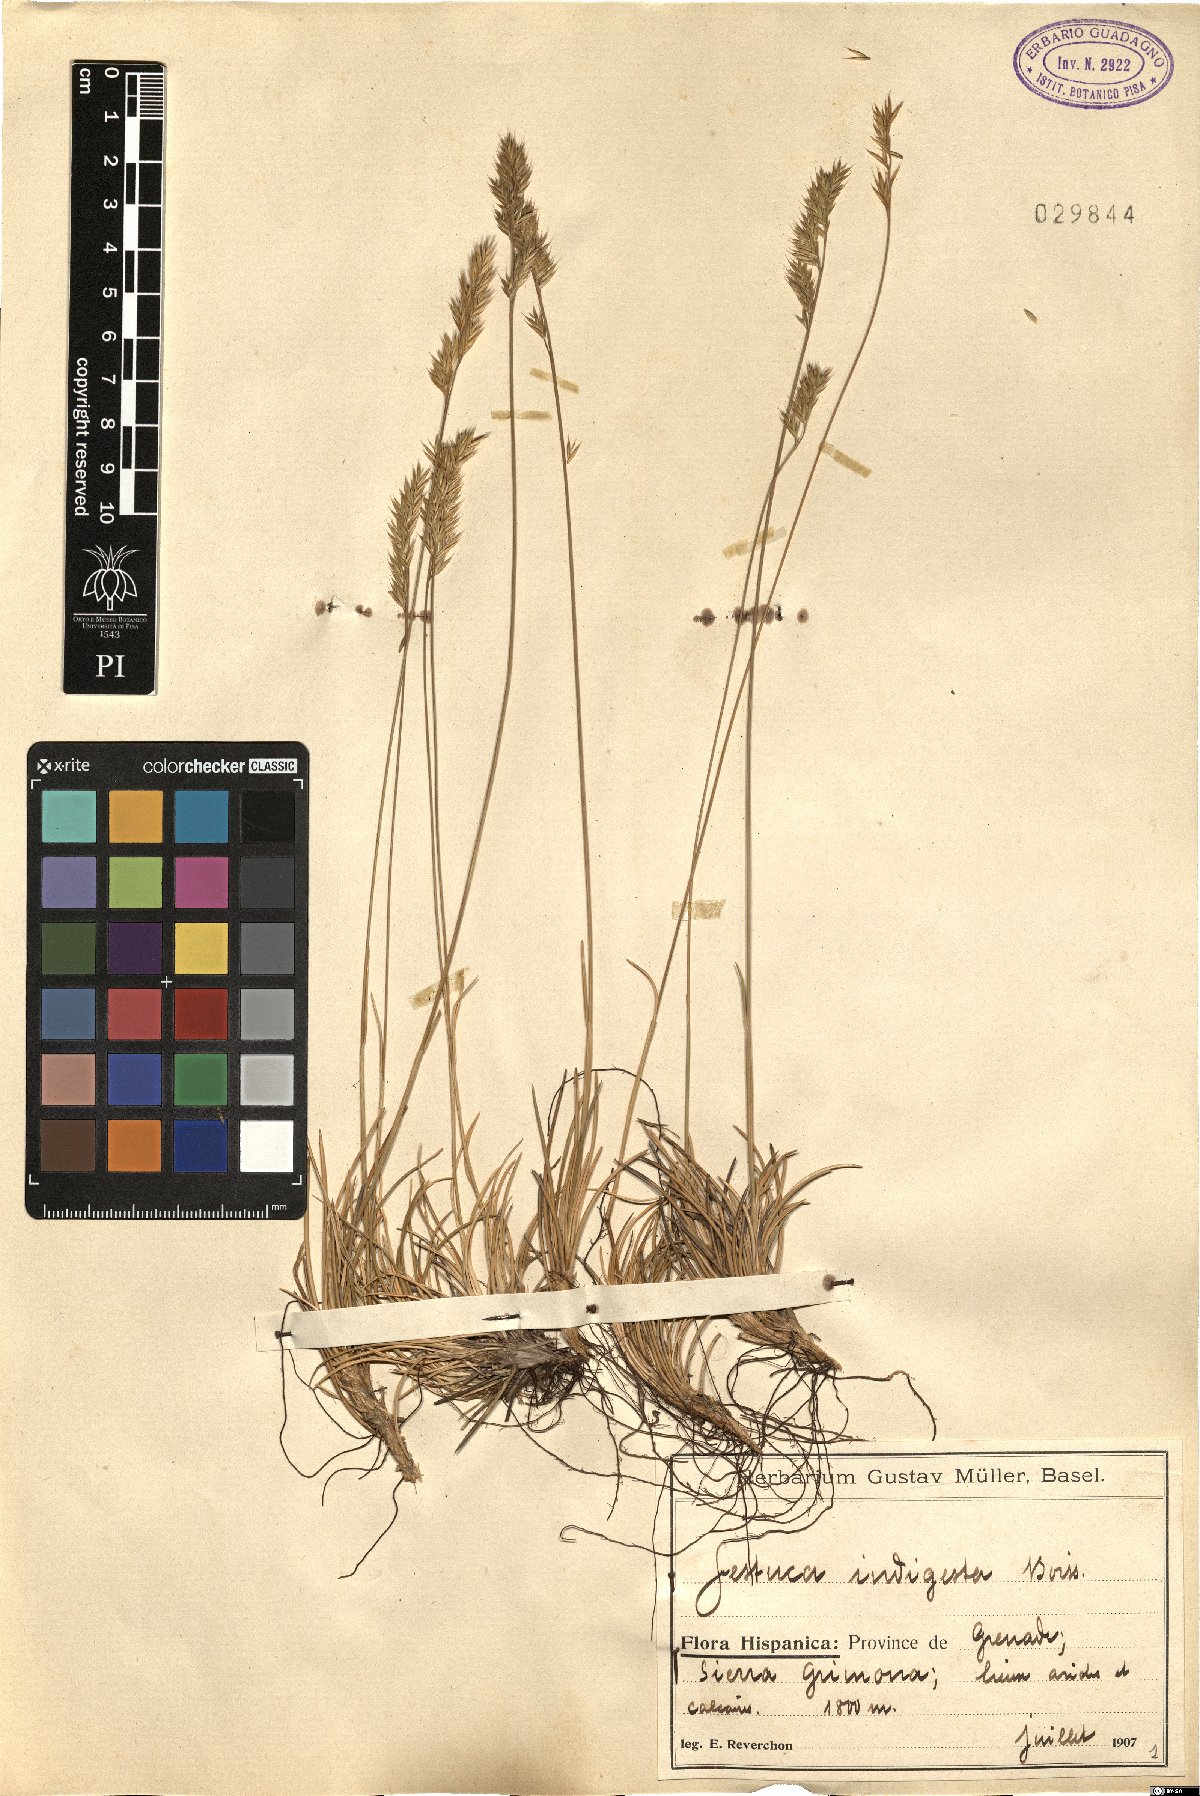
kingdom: Plantae
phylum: Tracheophyta
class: Liliopsida
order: Poales
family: Poaceae
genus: Festuca
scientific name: Festuca indigesta
